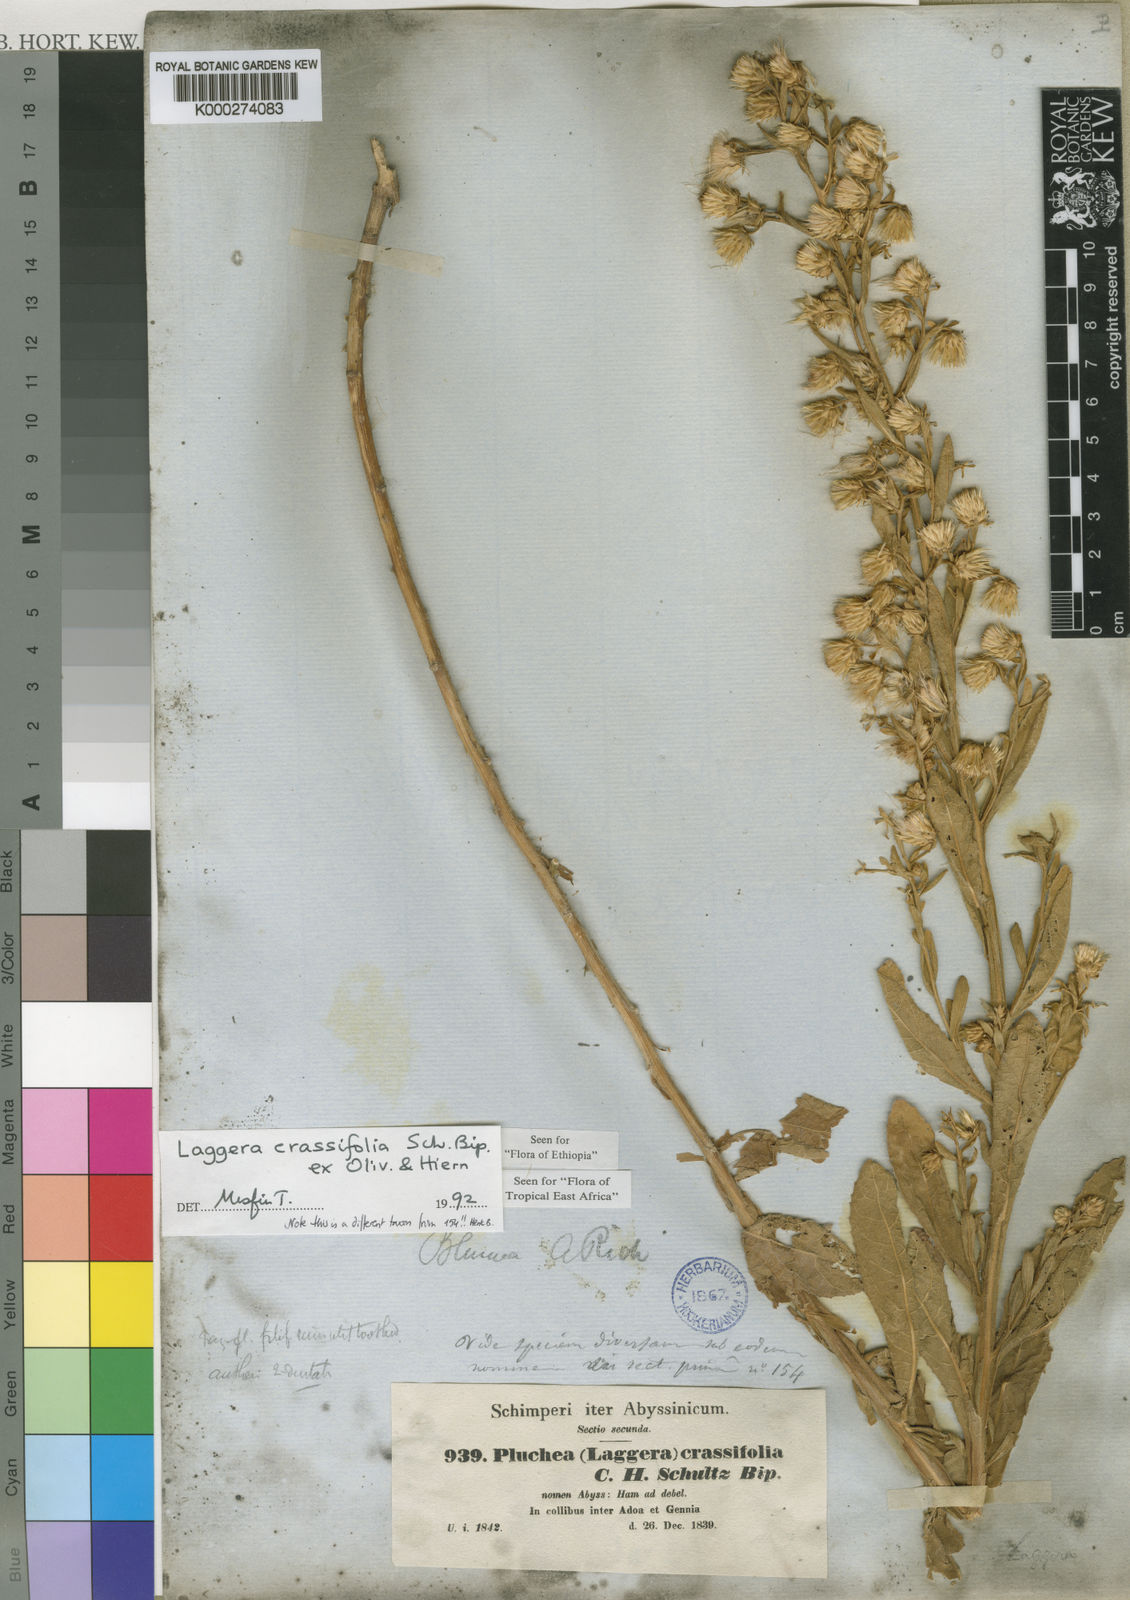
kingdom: Plantae
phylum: Tracheophyta
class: Magnoliopsida
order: Asterales
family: Asteraceae
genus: Laggera
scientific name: Laggera
